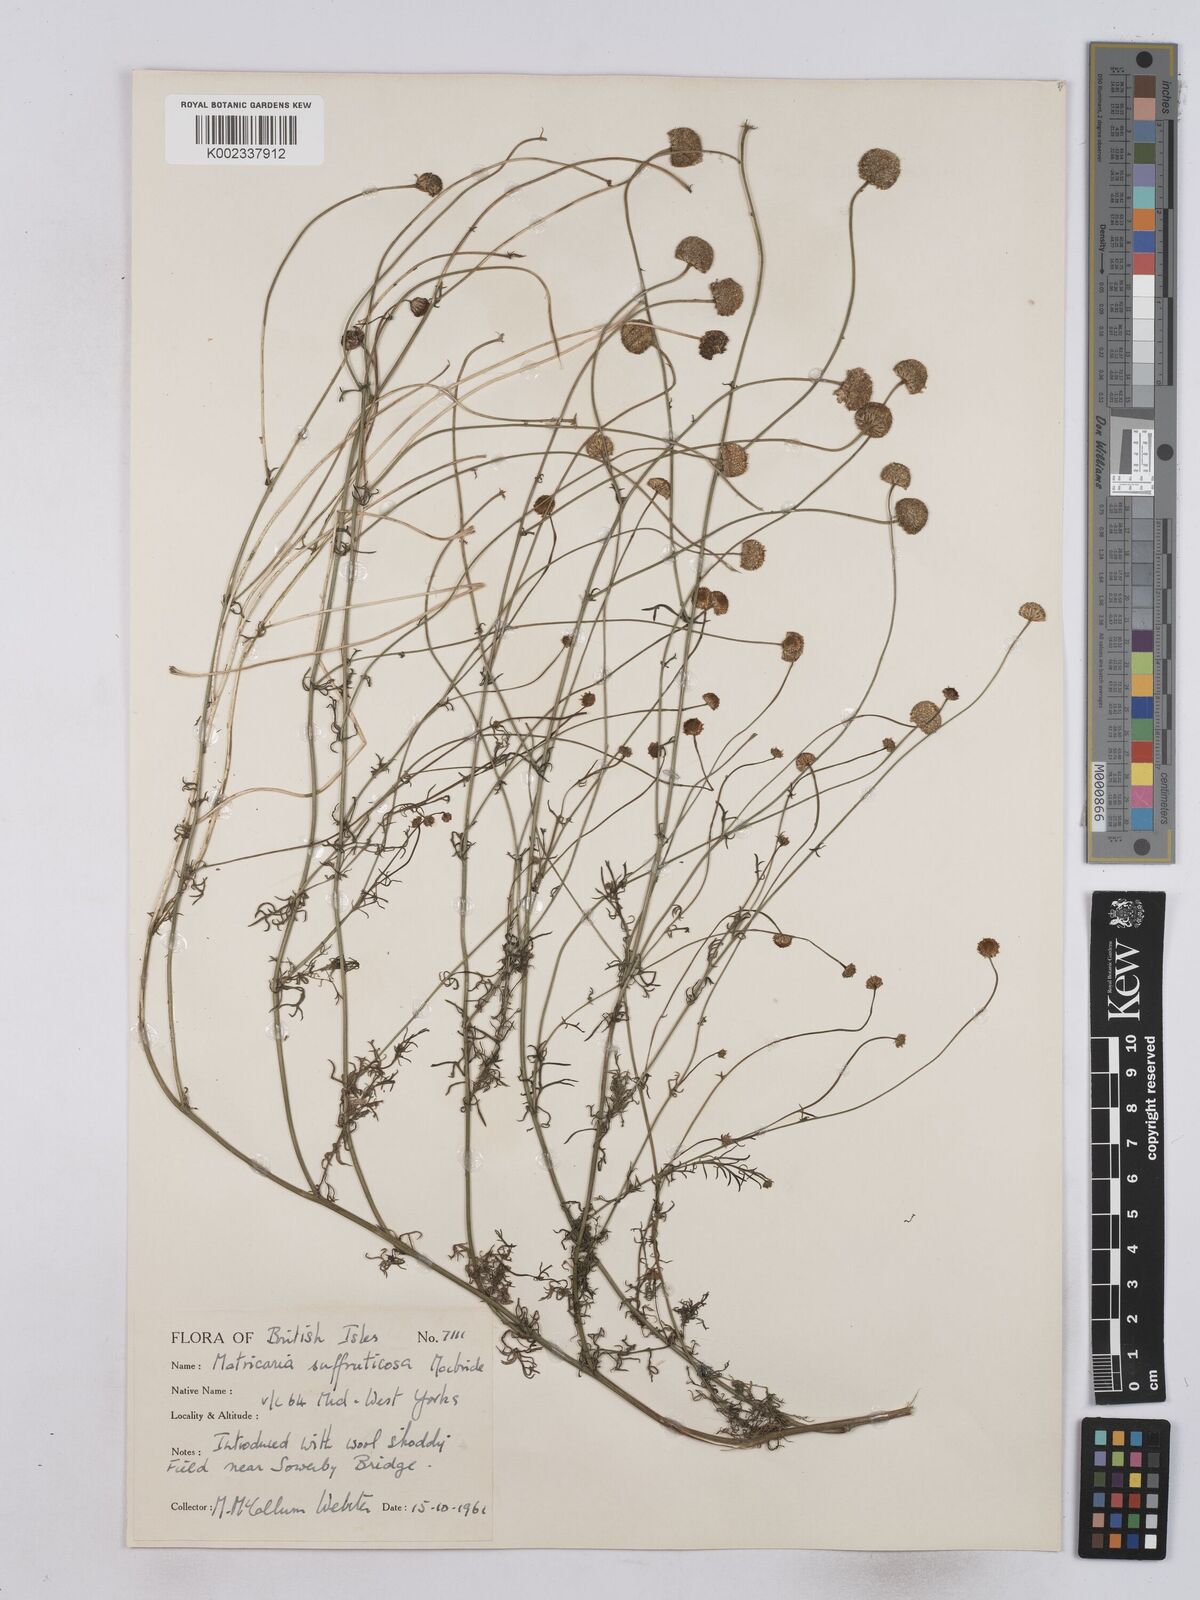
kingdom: Plantae
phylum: Tracheophyta
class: Magnoliopsida
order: Asterales
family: Asteraceae
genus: Oncosiphon
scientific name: Oncosiphon suffruticosus
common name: Shrubby mayweed
